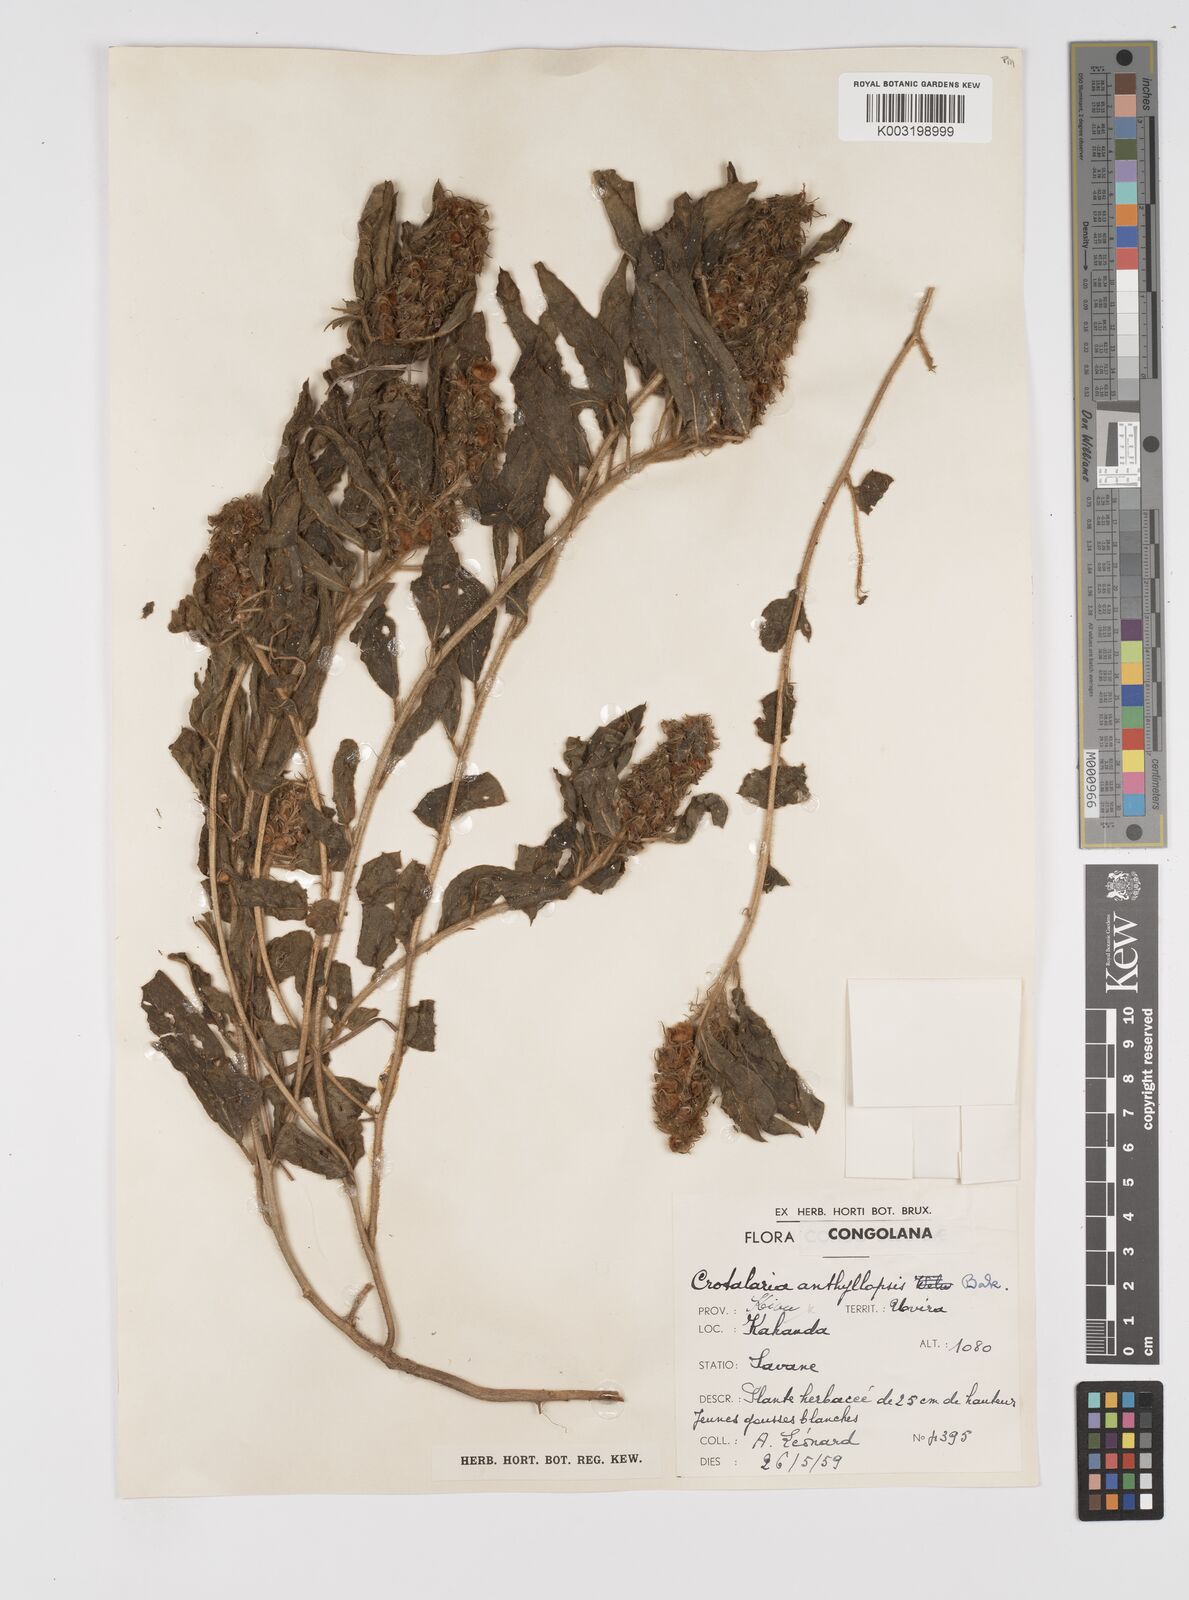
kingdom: Plantae
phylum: Tracheophyta
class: Magnoliopsida
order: Fabales
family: Fabaceae
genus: Crotalaria
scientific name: Crotalaria anthyllopsis
